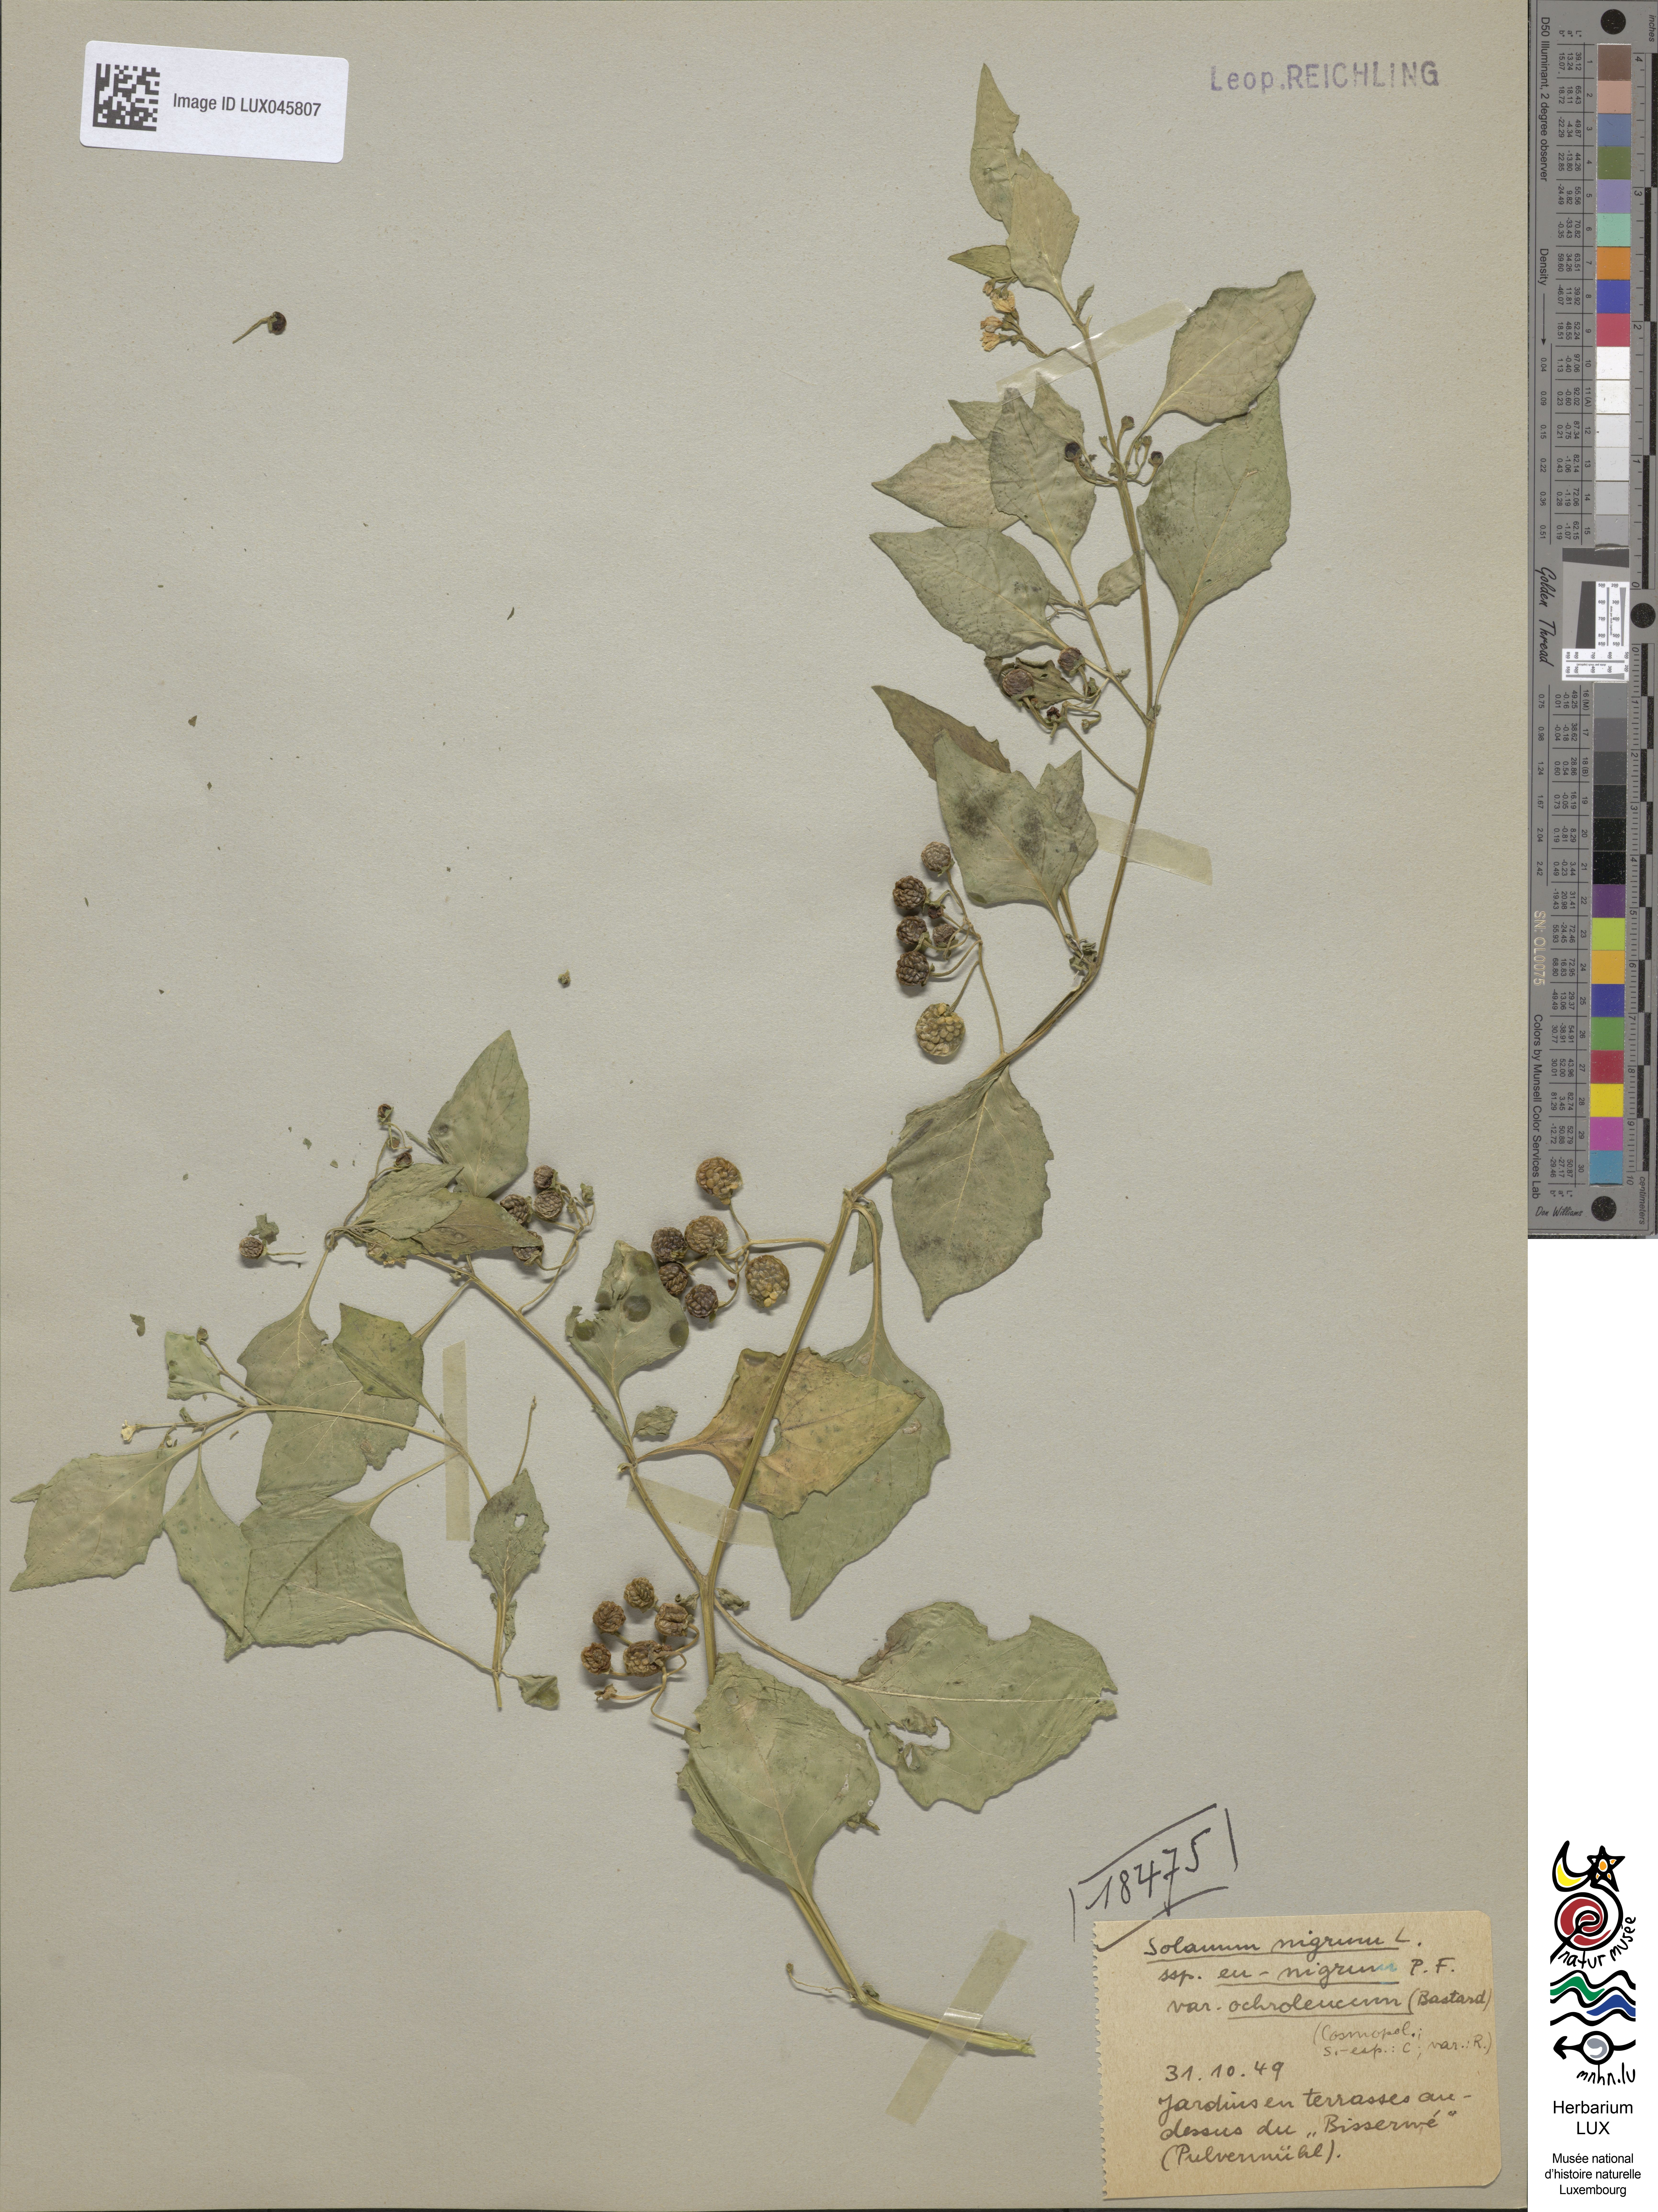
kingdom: Plantae
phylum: Tracheophyta
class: Magnoliopsida
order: Solanales
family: Solanaceae
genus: Solanum
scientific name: Solanum villosum
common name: Red nightshade
